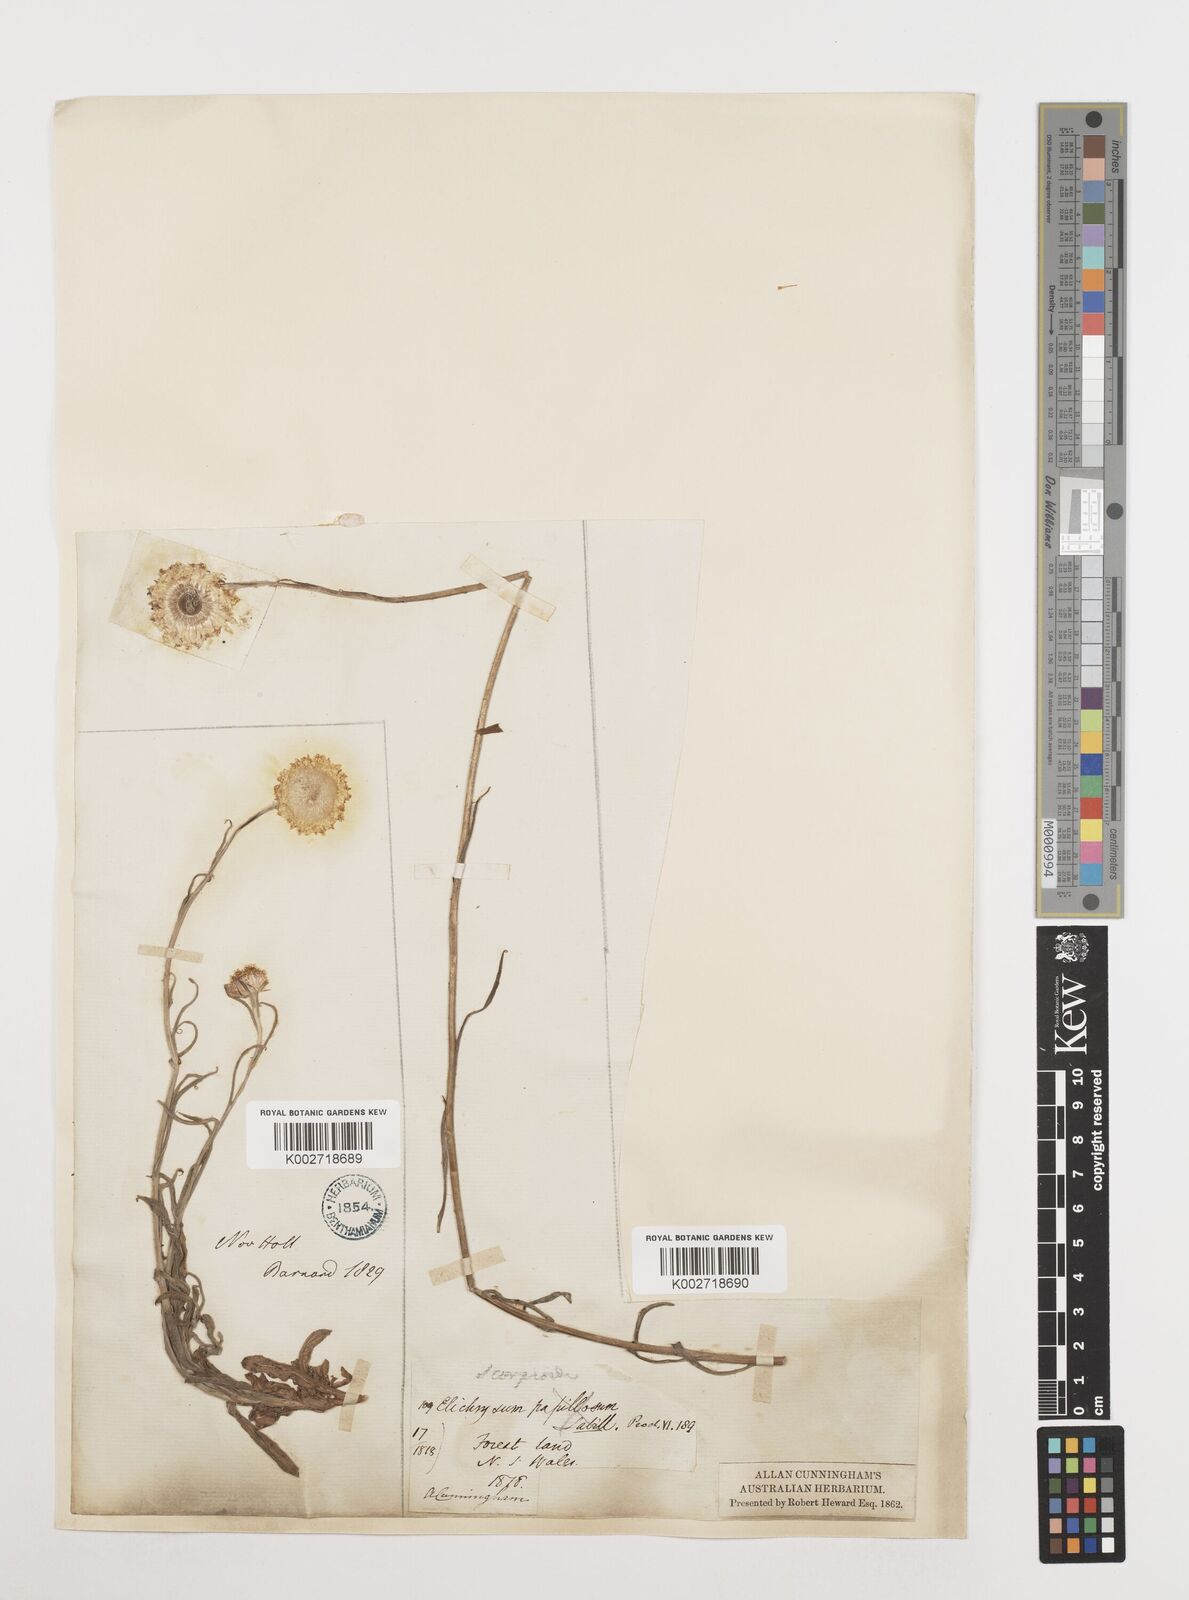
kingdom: Plantae
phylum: Tracheophyta
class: Magnoliopsida
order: Asterales
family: Asteraceae
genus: Coronidium
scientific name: Coronidium scorpioides
